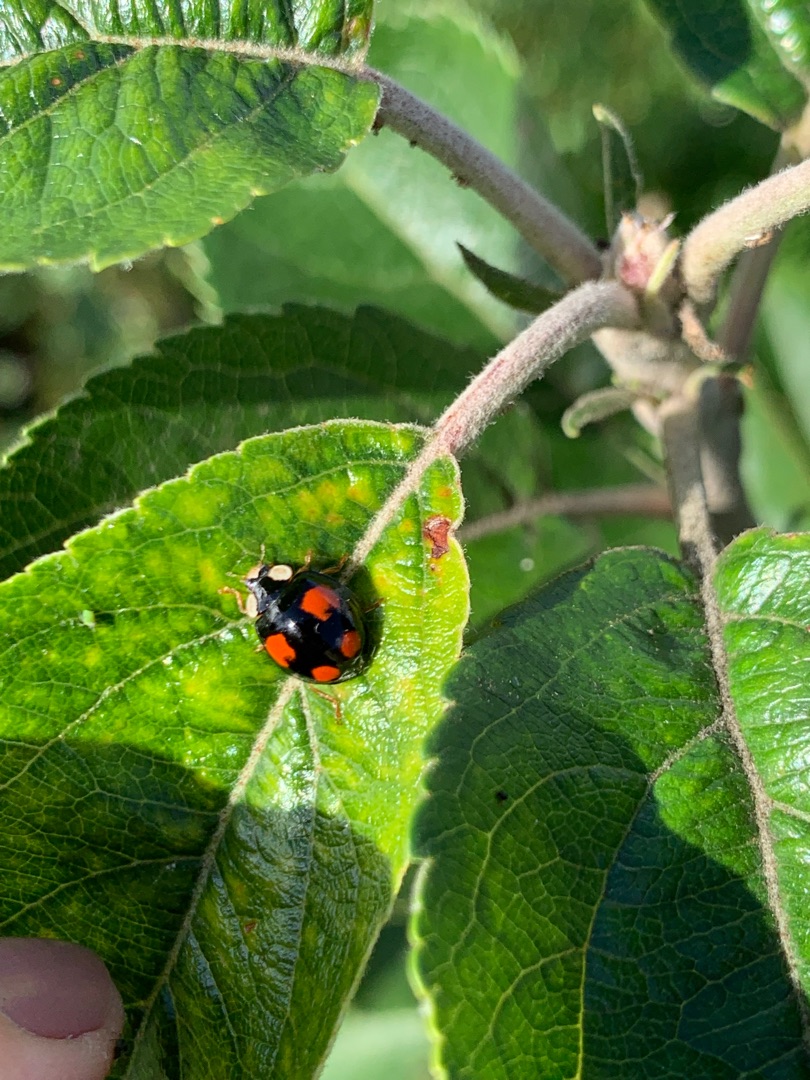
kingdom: Animalia
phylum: Arthropoda
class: Insecta
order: Coleoptera
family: Coccinellidae
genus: Harmonia
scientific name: Harmonia axyridis
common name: Harlekinmariehøne
